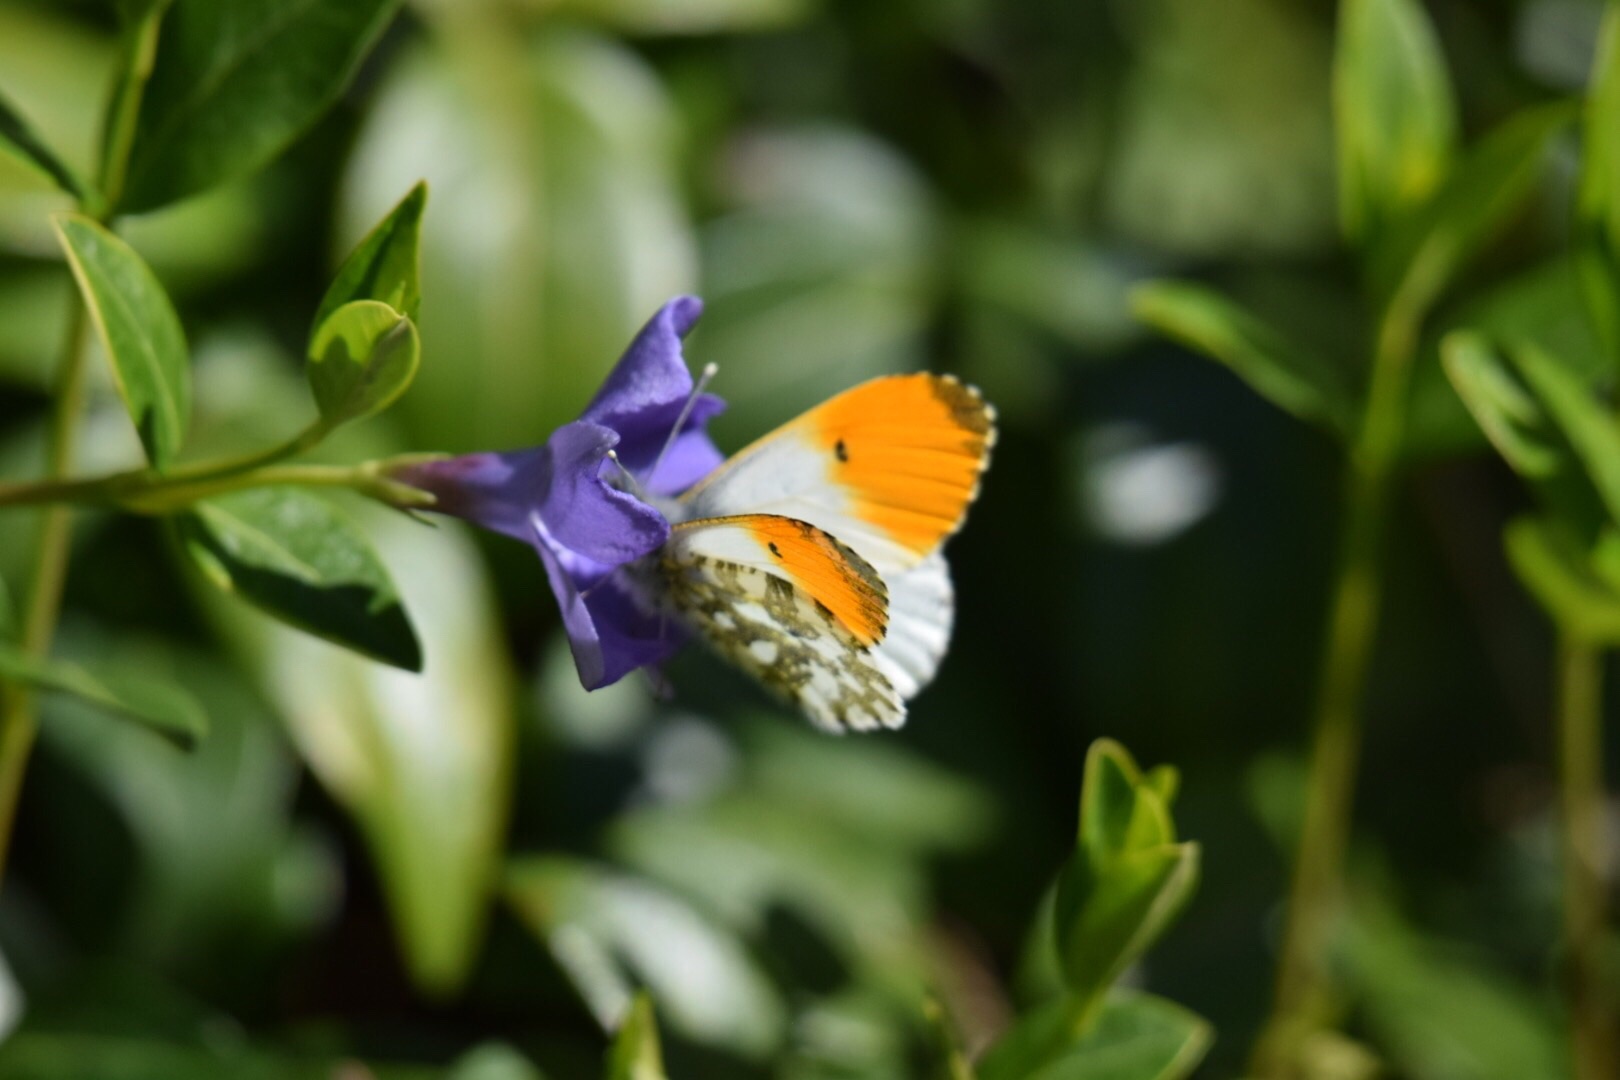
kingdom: Animalia
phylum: Arthropoda
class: Insecta
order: Lepidoptera
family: Pieridae
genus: Anthocharis
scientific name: Anthocharis cardamines
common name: Aurora
